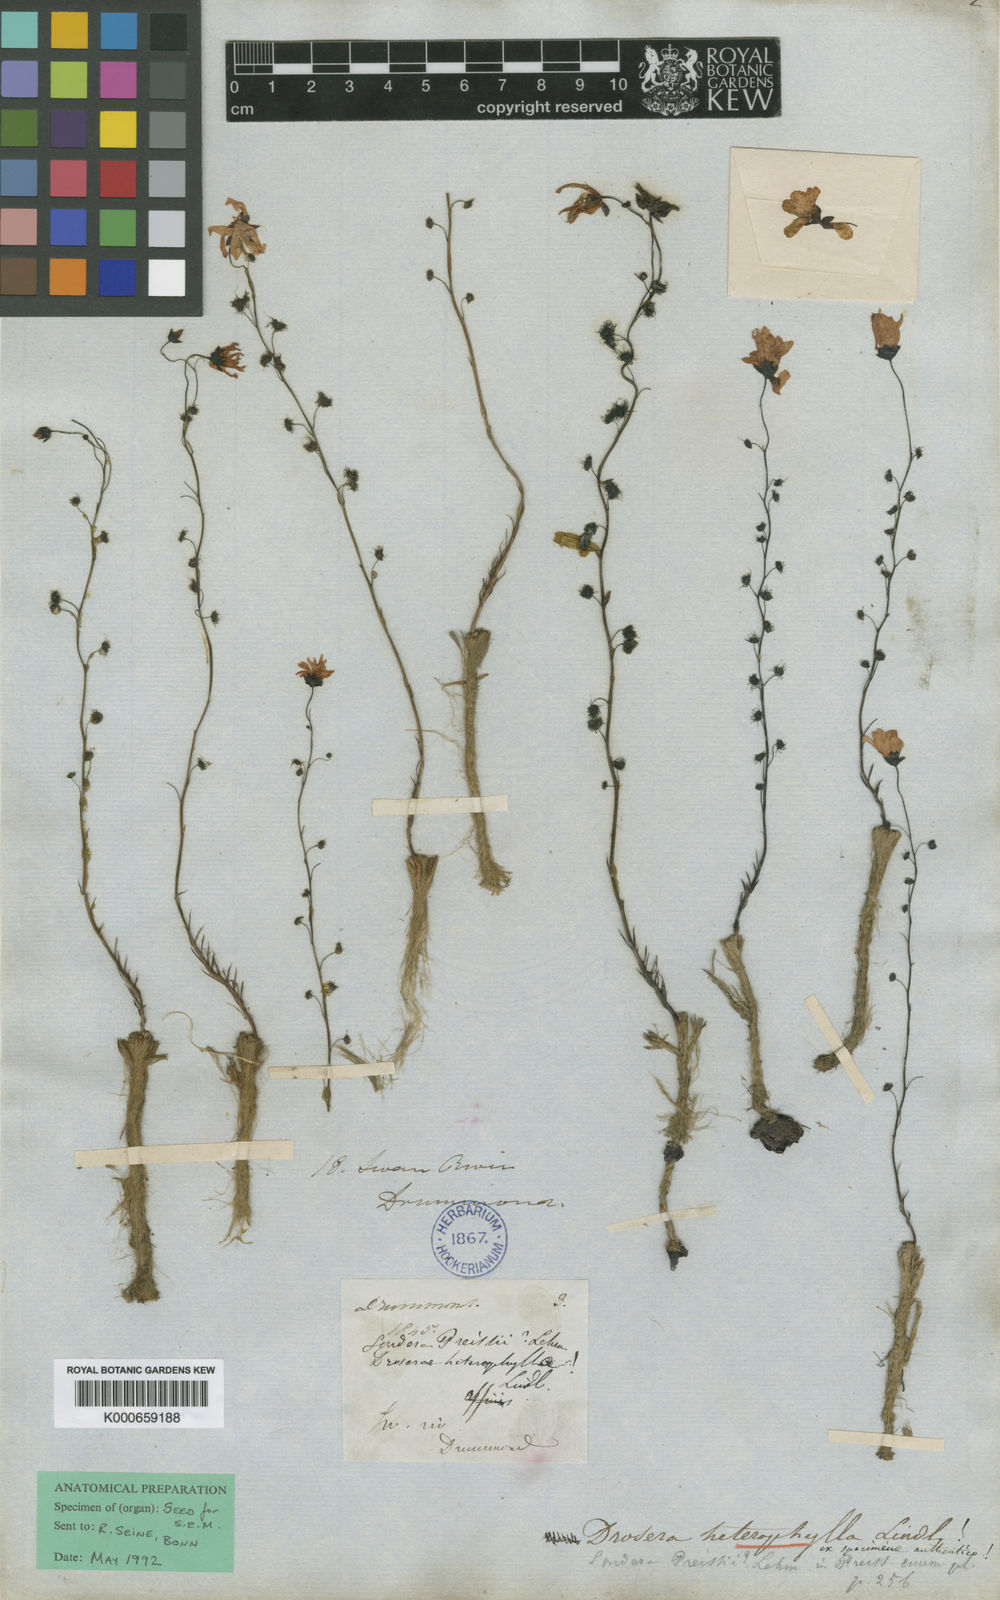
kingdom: Plantae
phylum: Tracheophyta
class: Magnoliopsida
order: Caryophyllales
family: Droseraceae
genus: Drosera
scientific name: Drosera heterophylla
